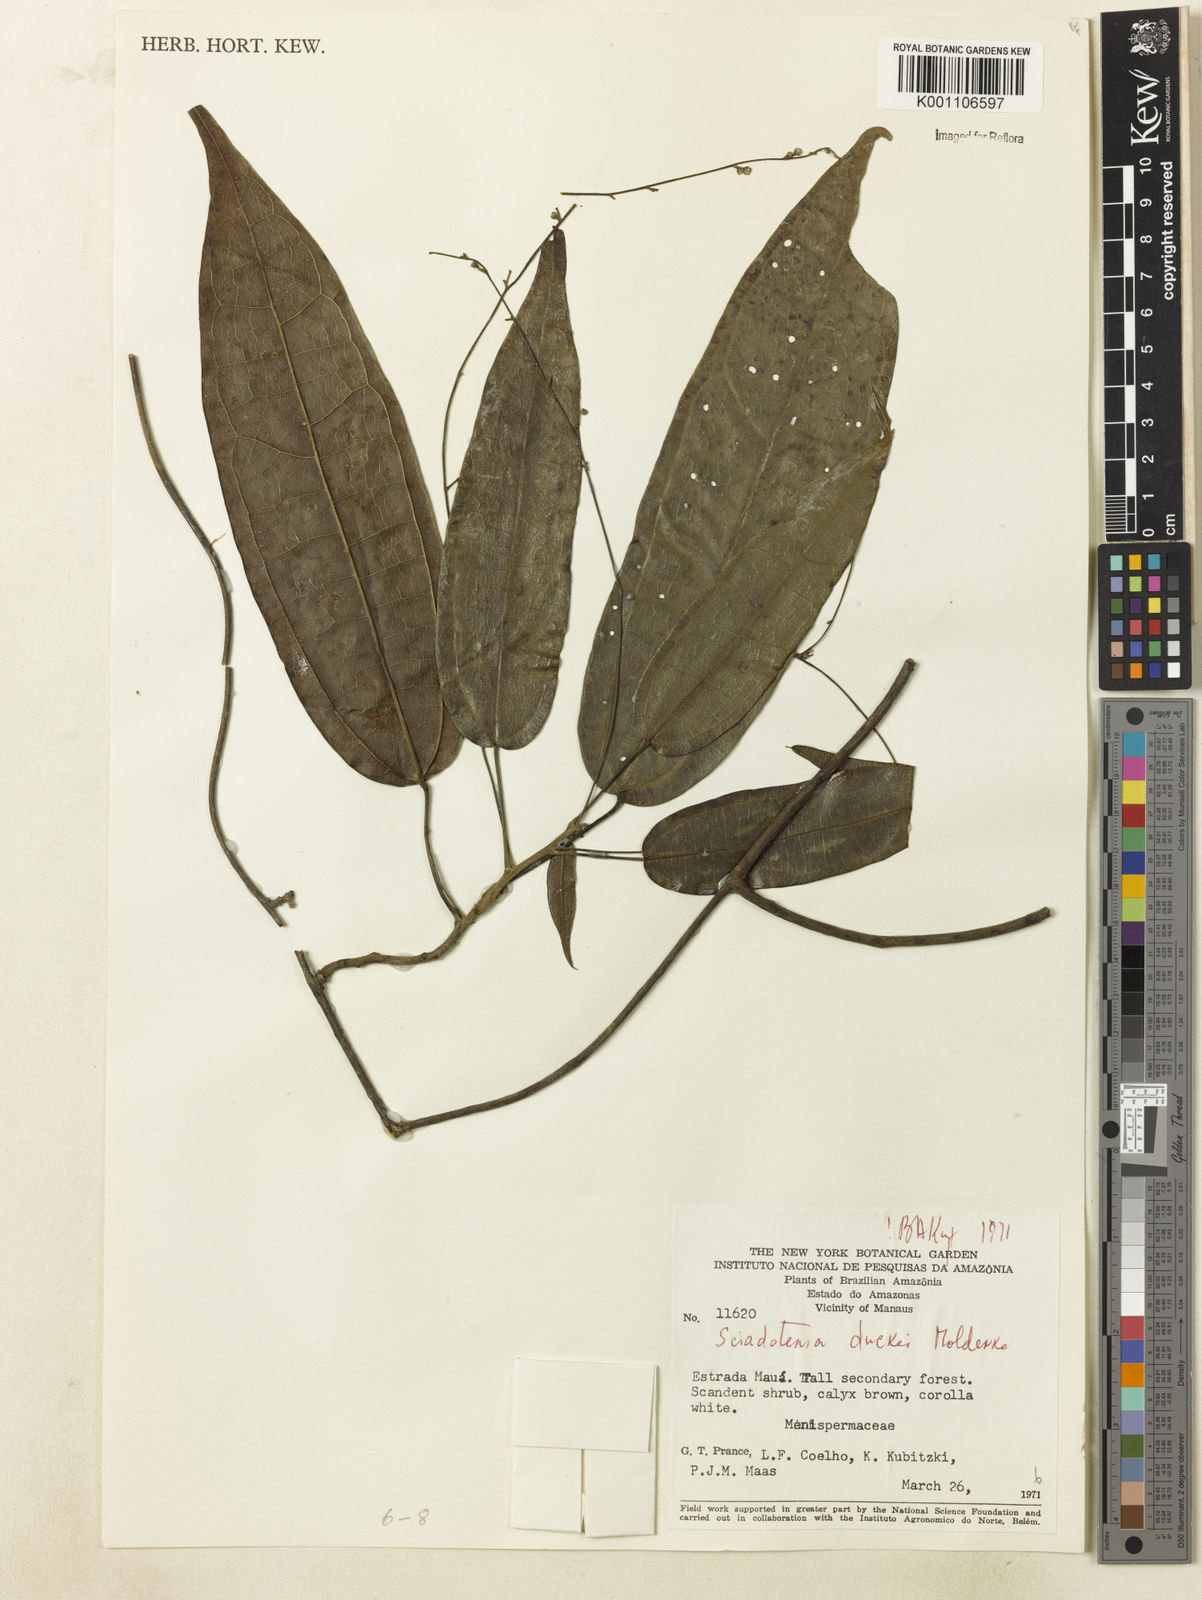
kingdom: Plantae
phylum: Tracheophyta
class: Magnoliopsida
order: Ranunculales
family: Menispermaceae
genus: Sciadotenia
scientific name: Sciadotenia duckei
